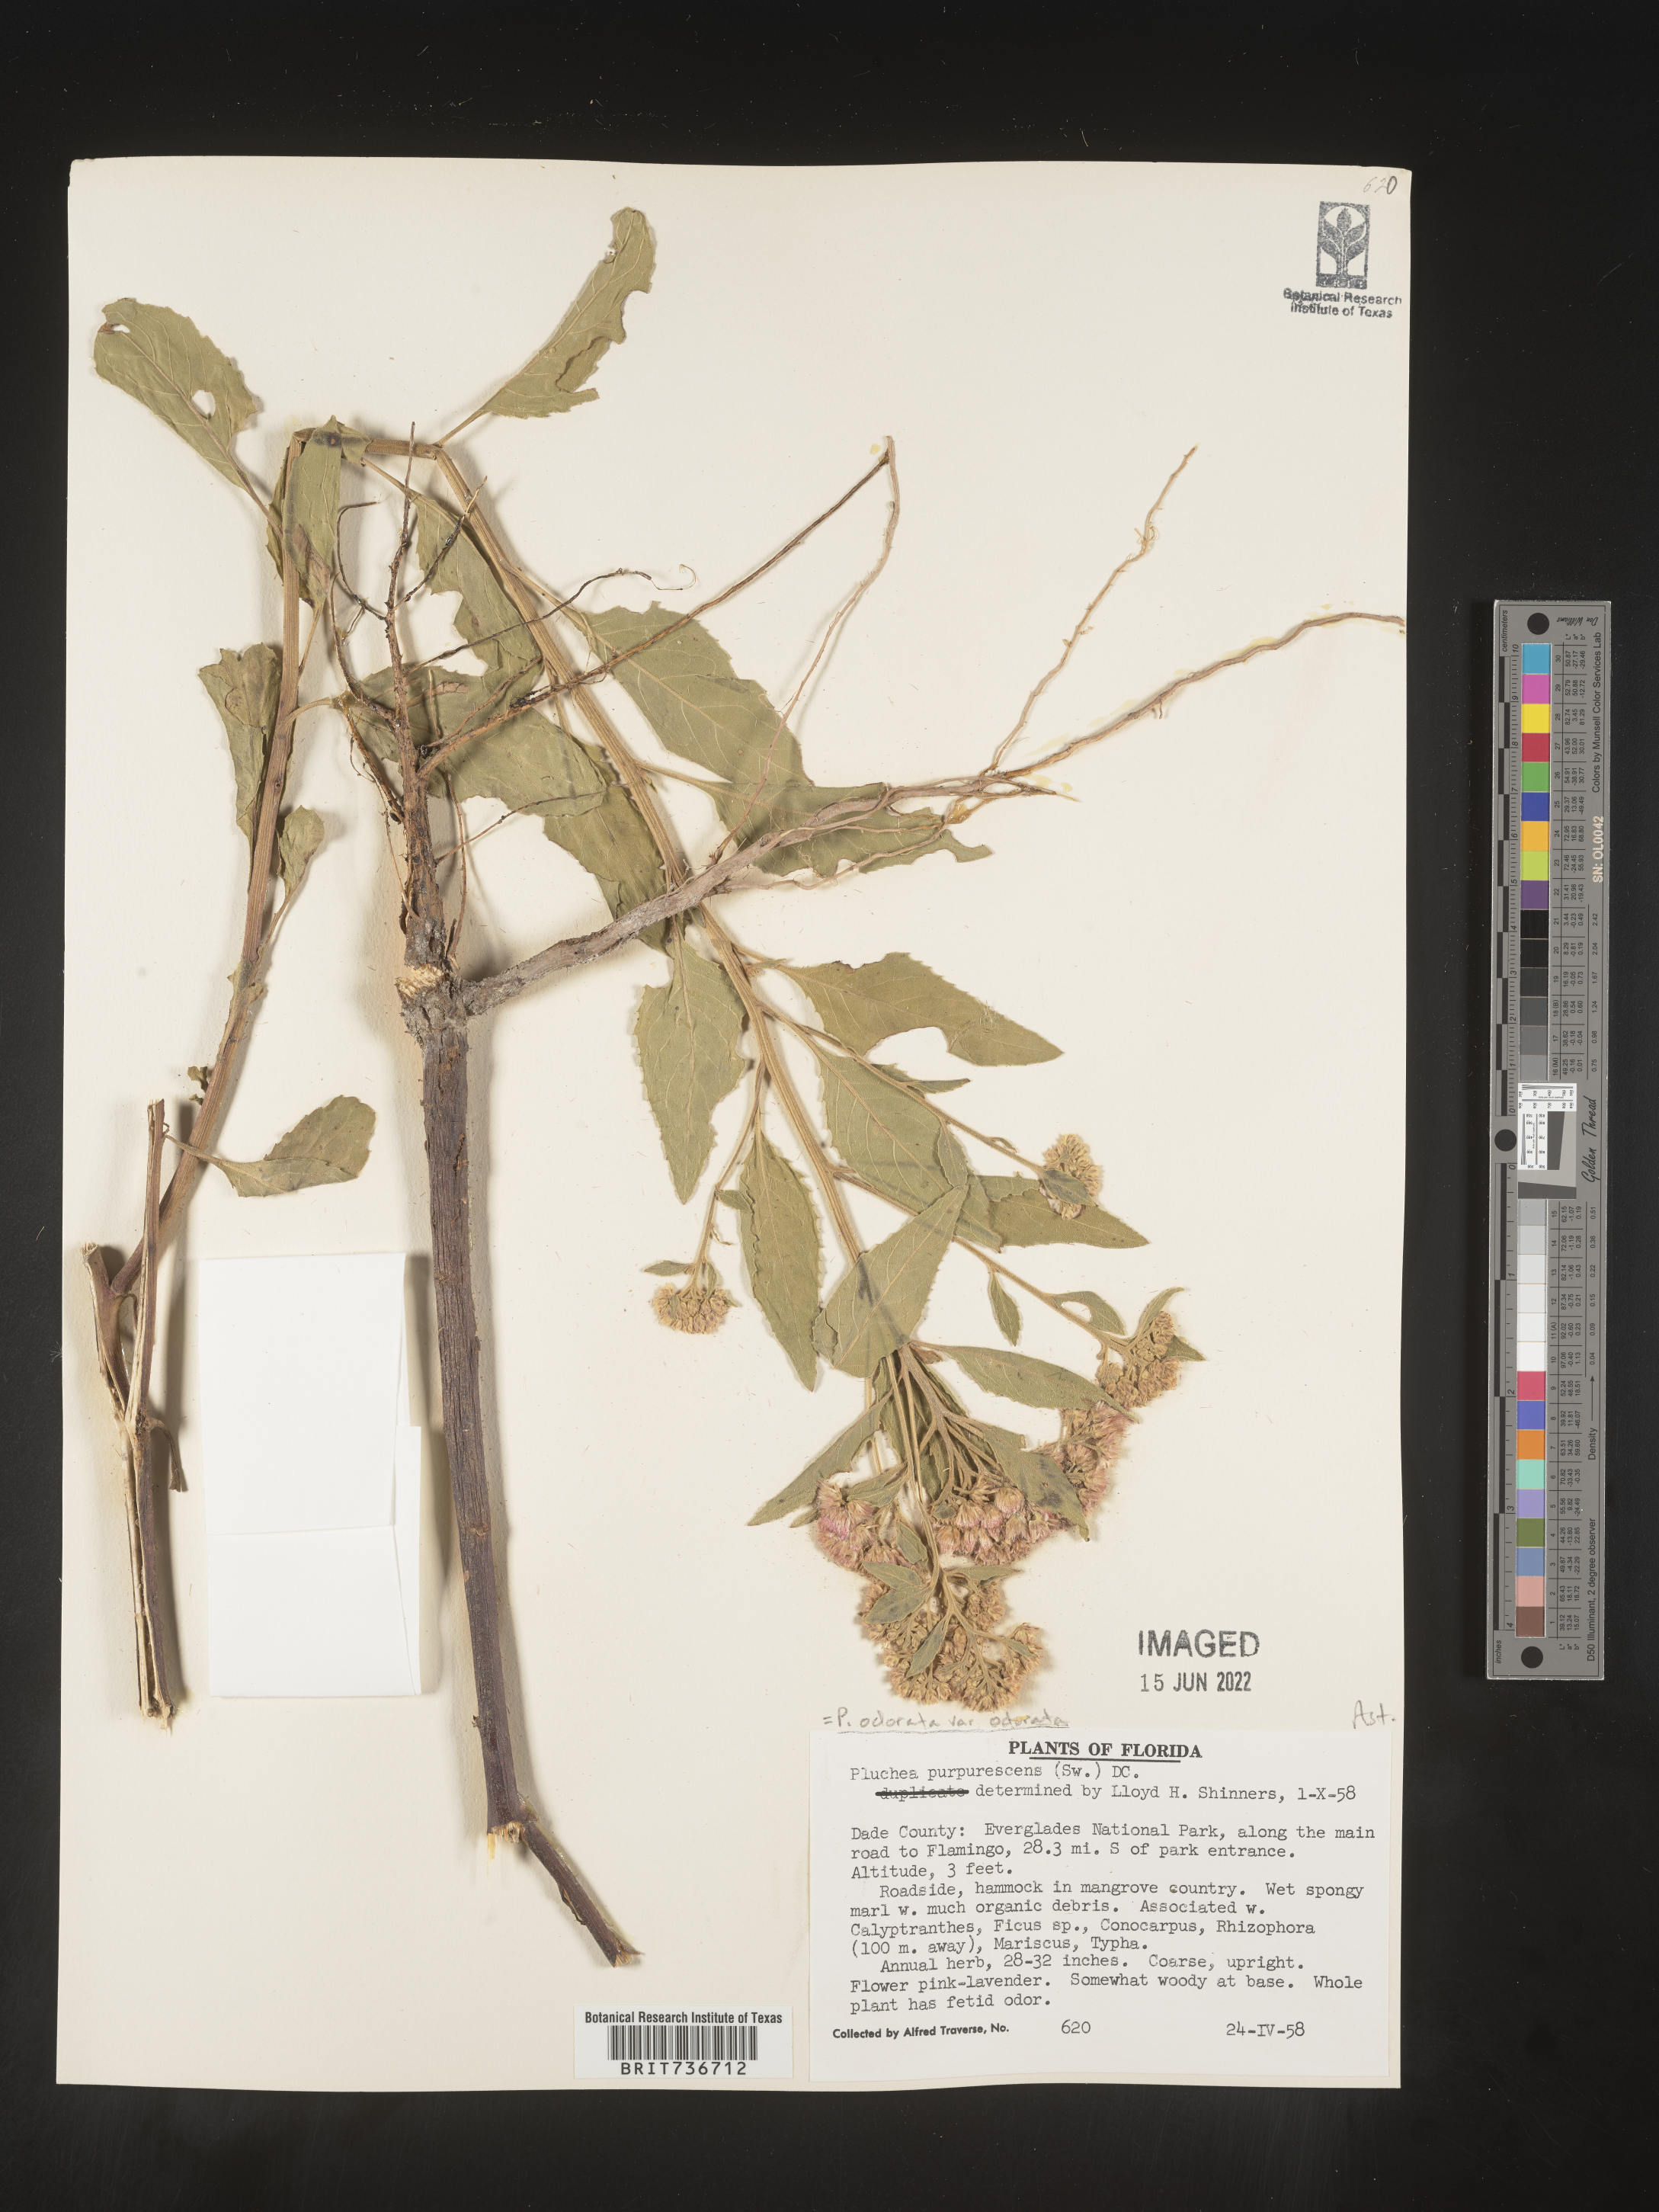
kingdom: Plantae
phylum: Tracheophyta
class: Magnoliopsida
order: Asterales
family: Asteraceae
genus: Pluchea
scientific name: Pluchea odorata
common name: Saltmarsh fleabane
